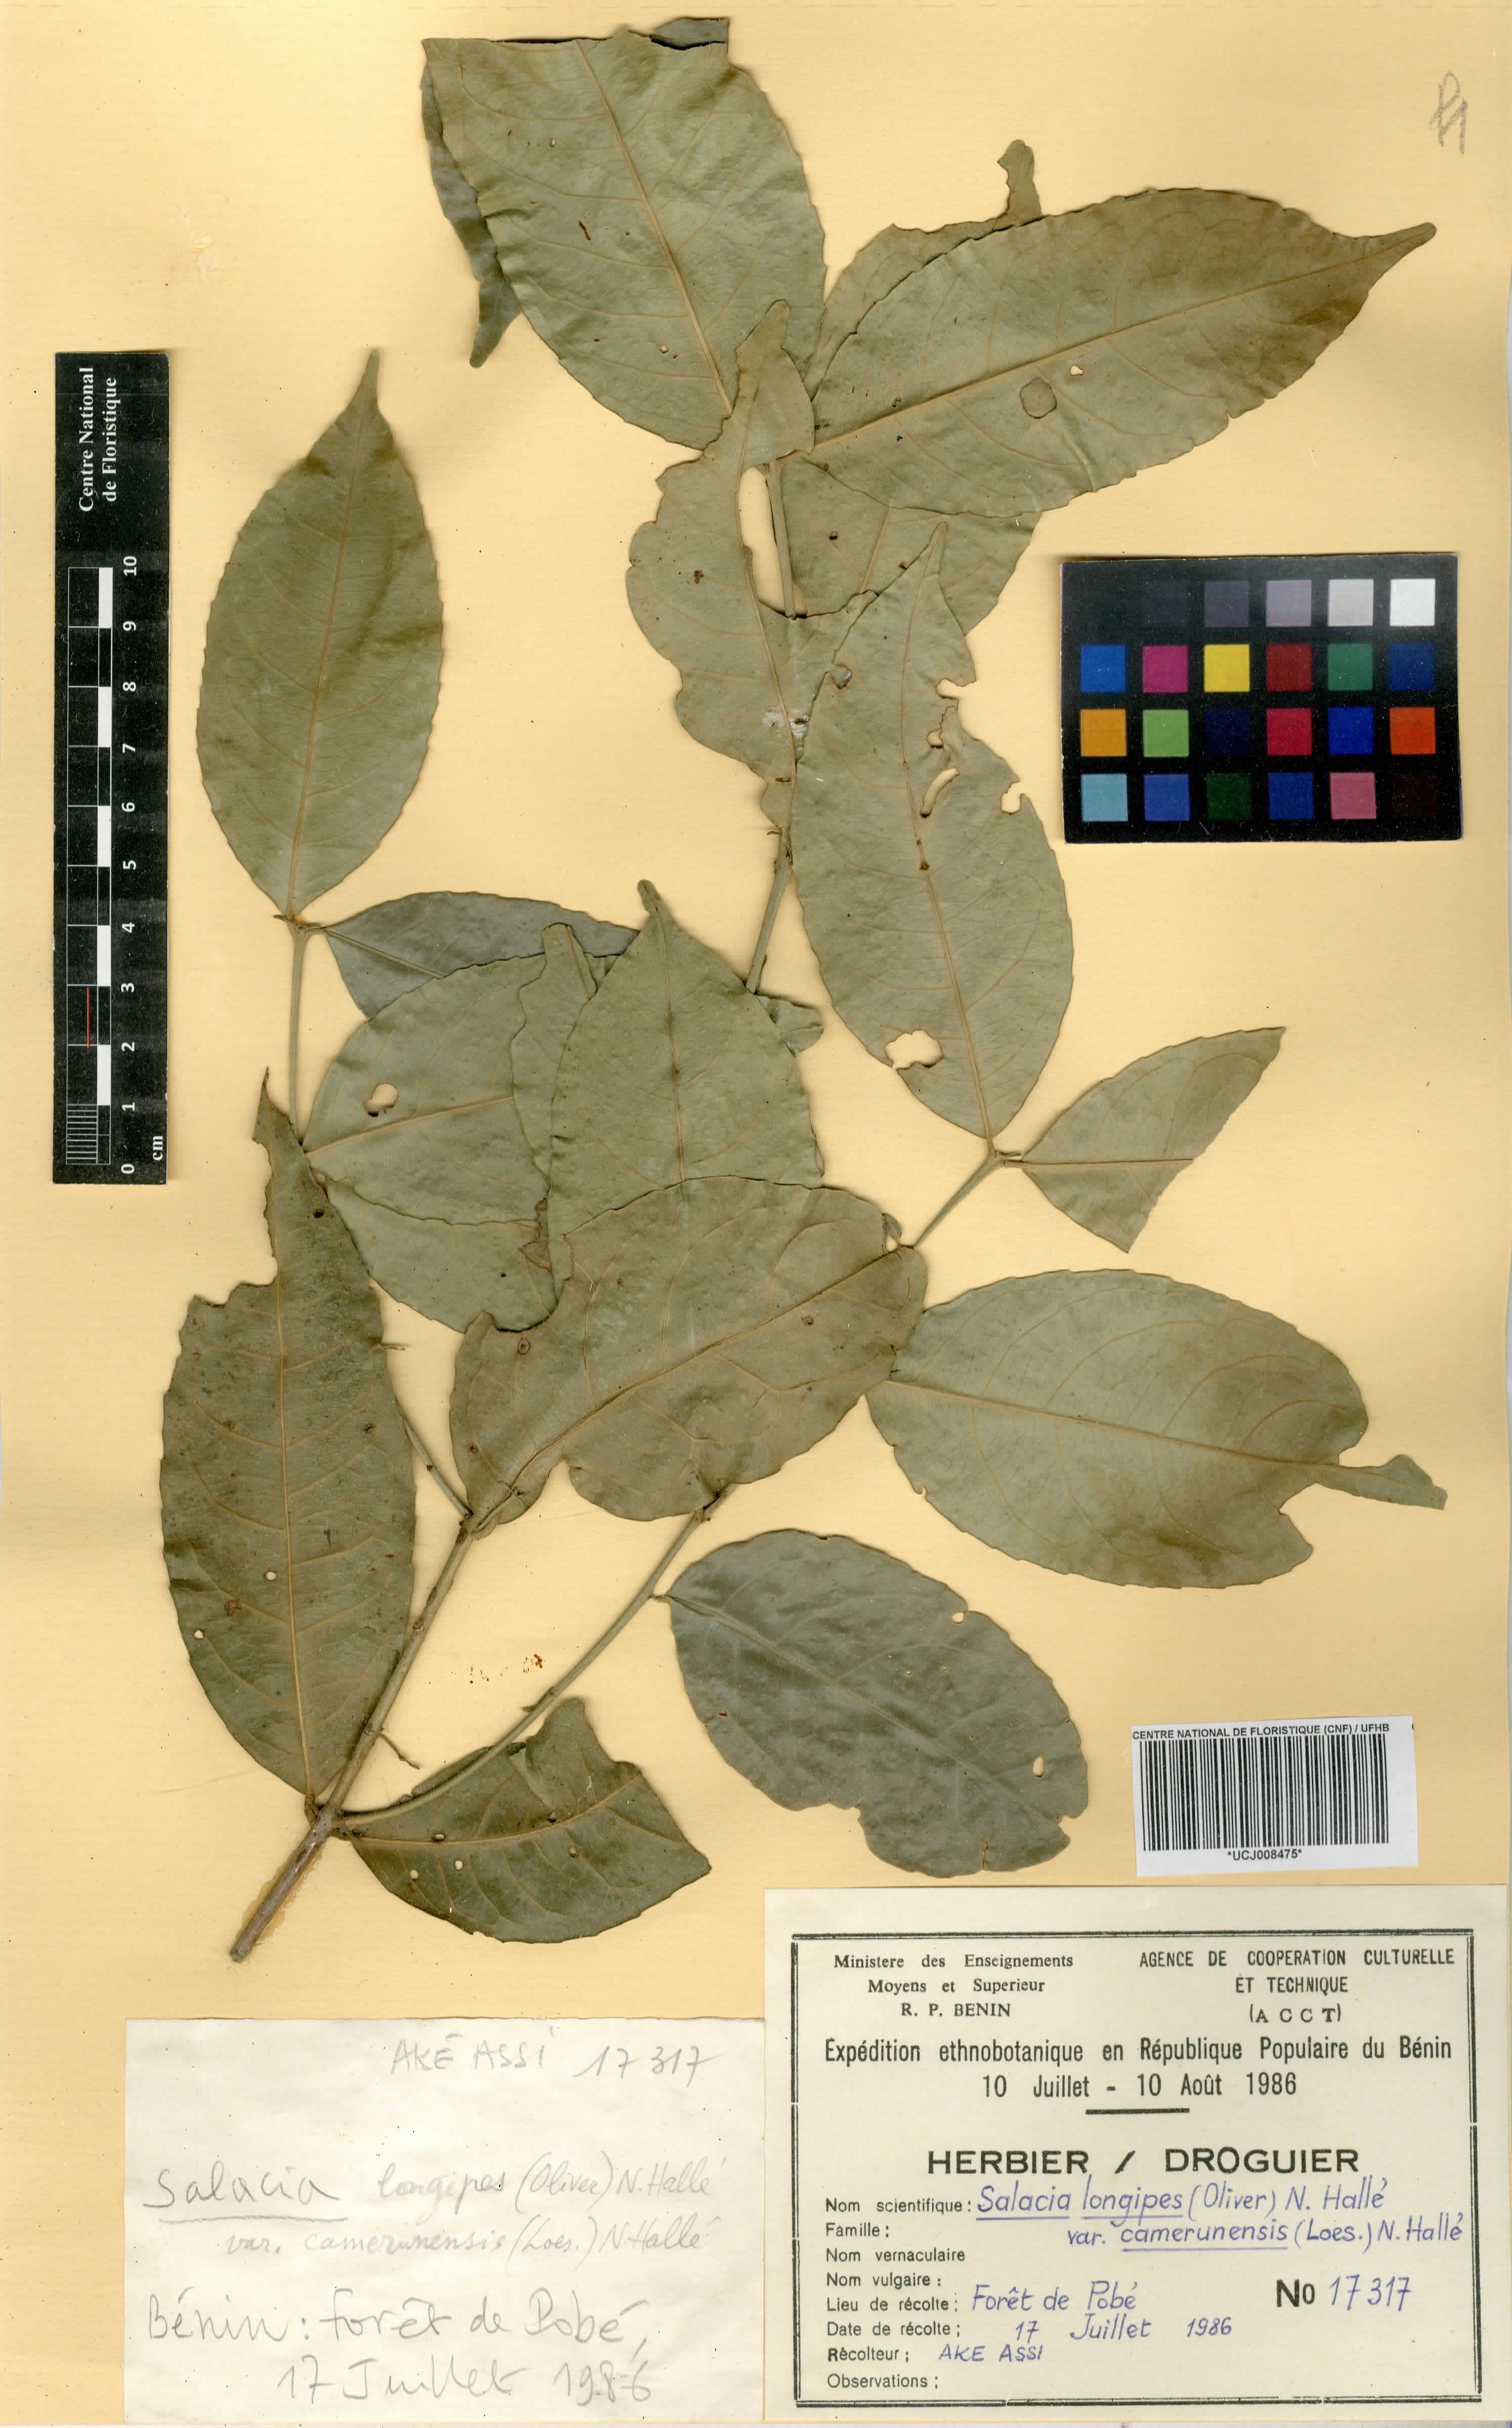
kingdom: Plantae
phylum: Tracheophyta
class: Magnoliopsida
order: Celastrales
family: Celastraceae
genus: Salacia
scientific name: Salacia longipes
